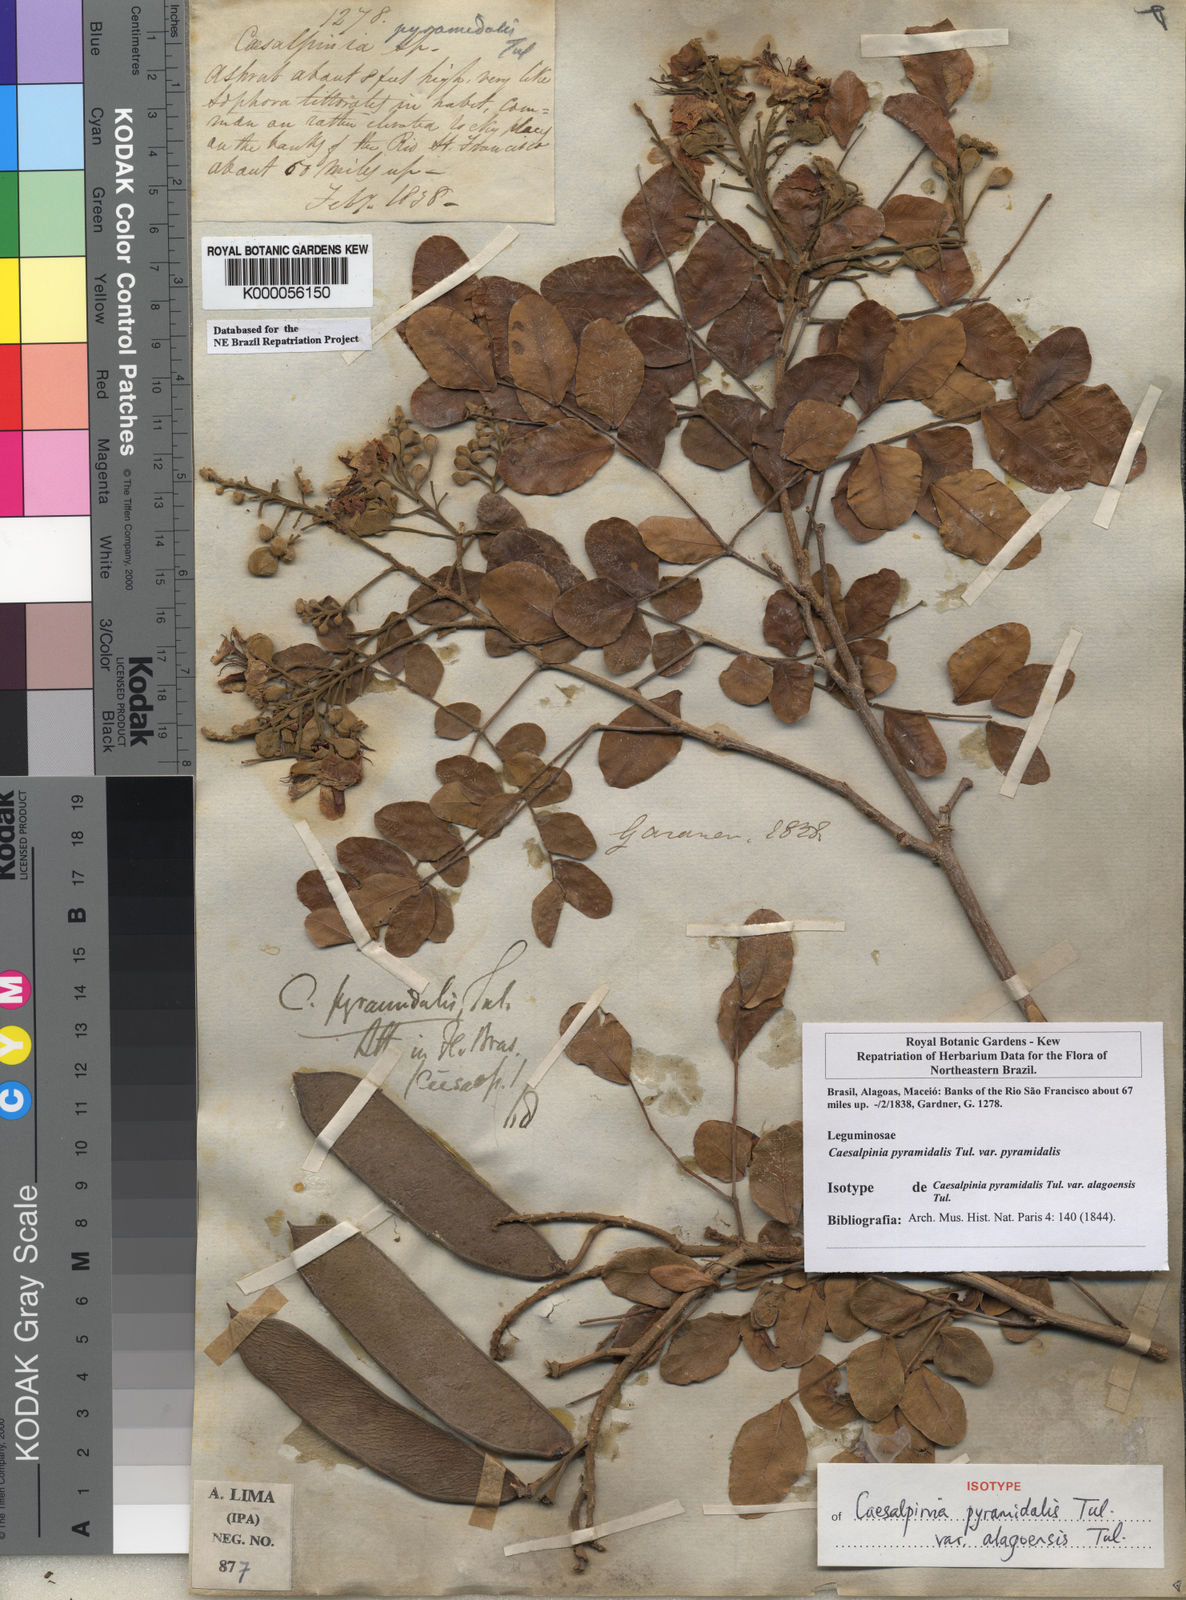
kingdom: Plantae
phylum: Tracheophyta
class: Magnoliopsida
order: Fabales
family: Fabaceae
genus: Cenostigma
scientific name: Cenostigma pyramidale
